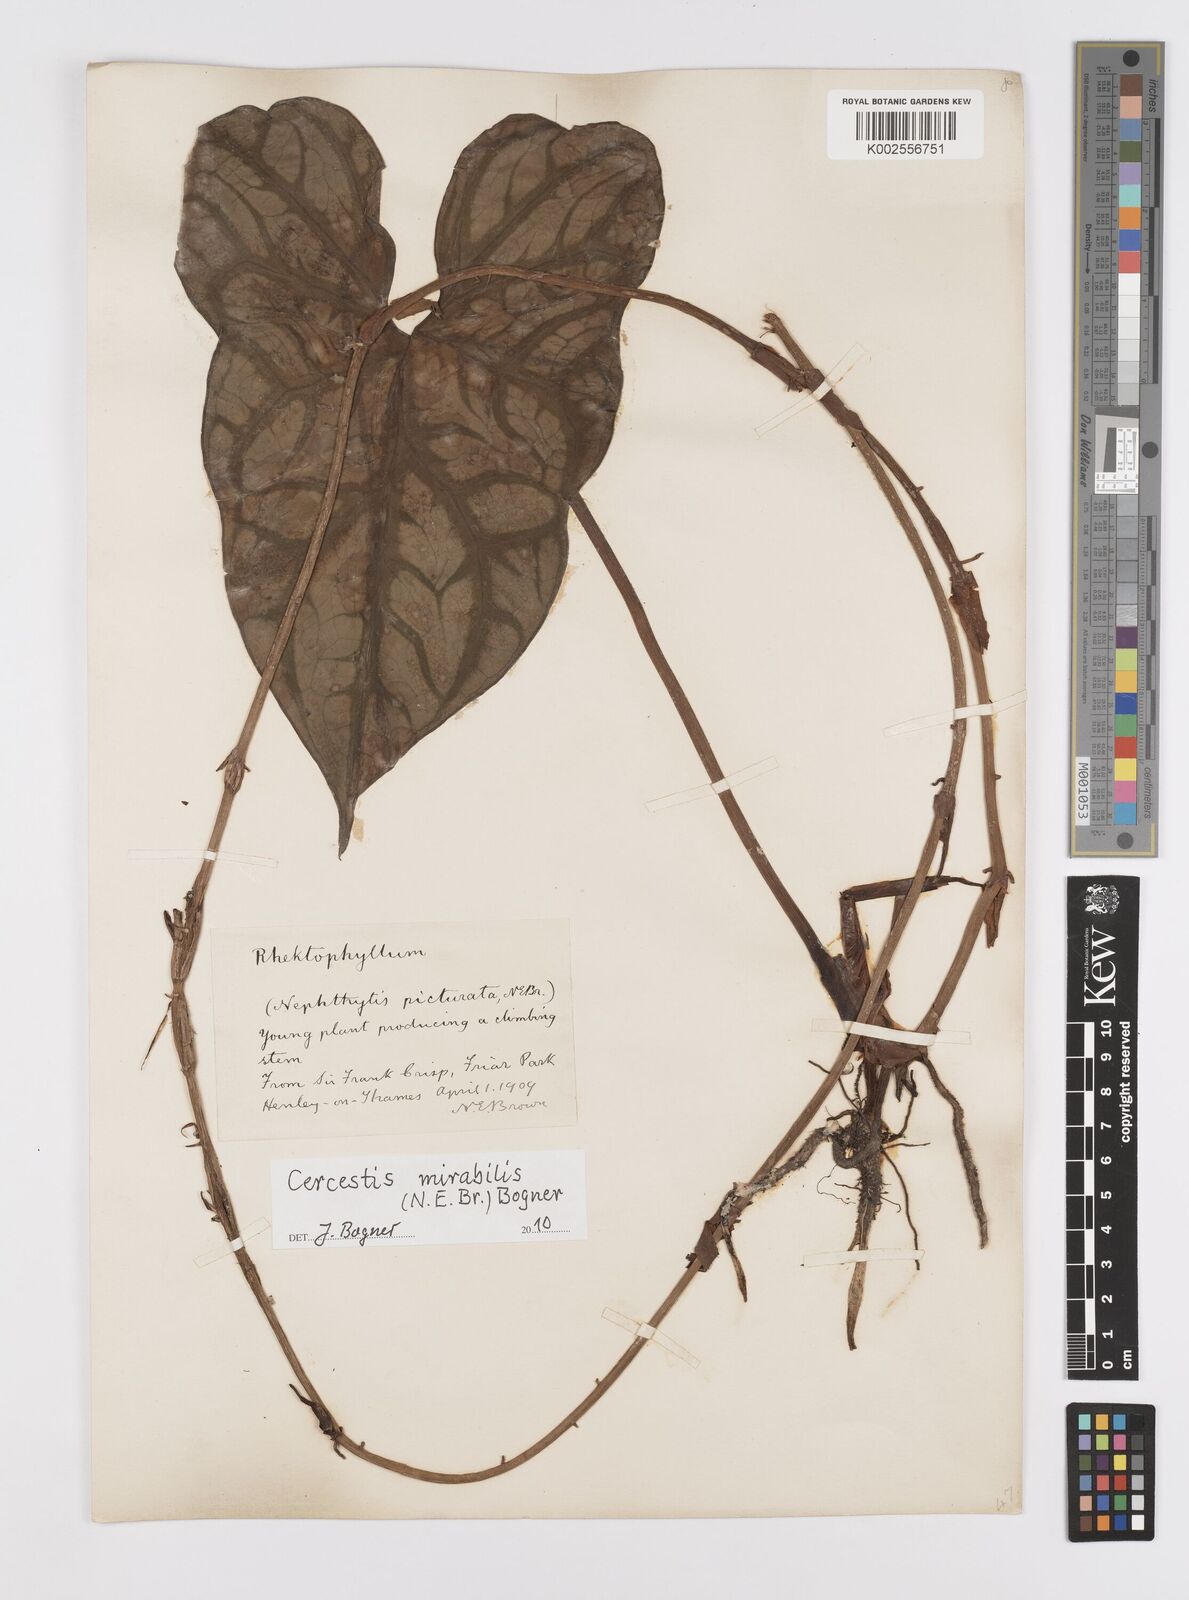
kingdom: Plantae
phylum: Tracheophyta
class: Liliopsida
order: Alismatales
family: Araceae
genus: Cercestis
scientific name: Cercestis mirabilis
